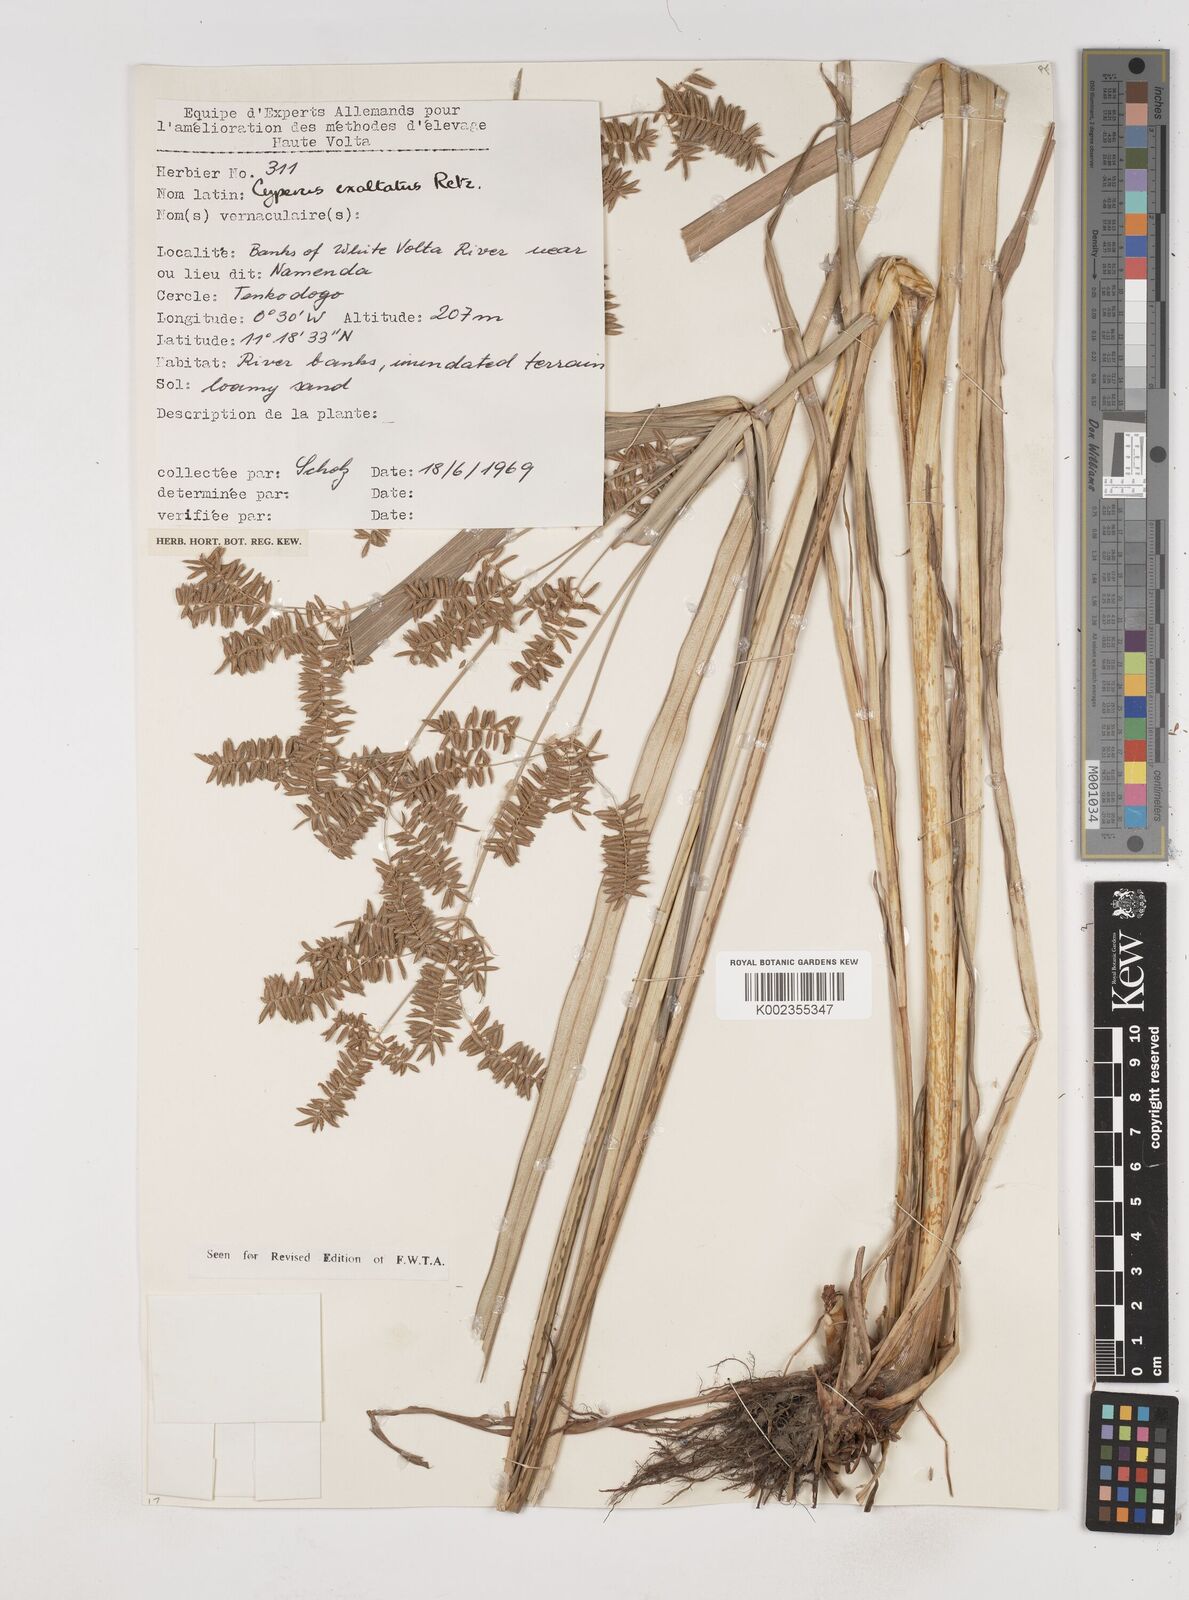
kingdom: Plantae
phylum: Tracheophyta
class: Liliopsida
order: Poales
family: Cyperaceae
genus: Cyperus
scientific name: Cyperus exaltatus
